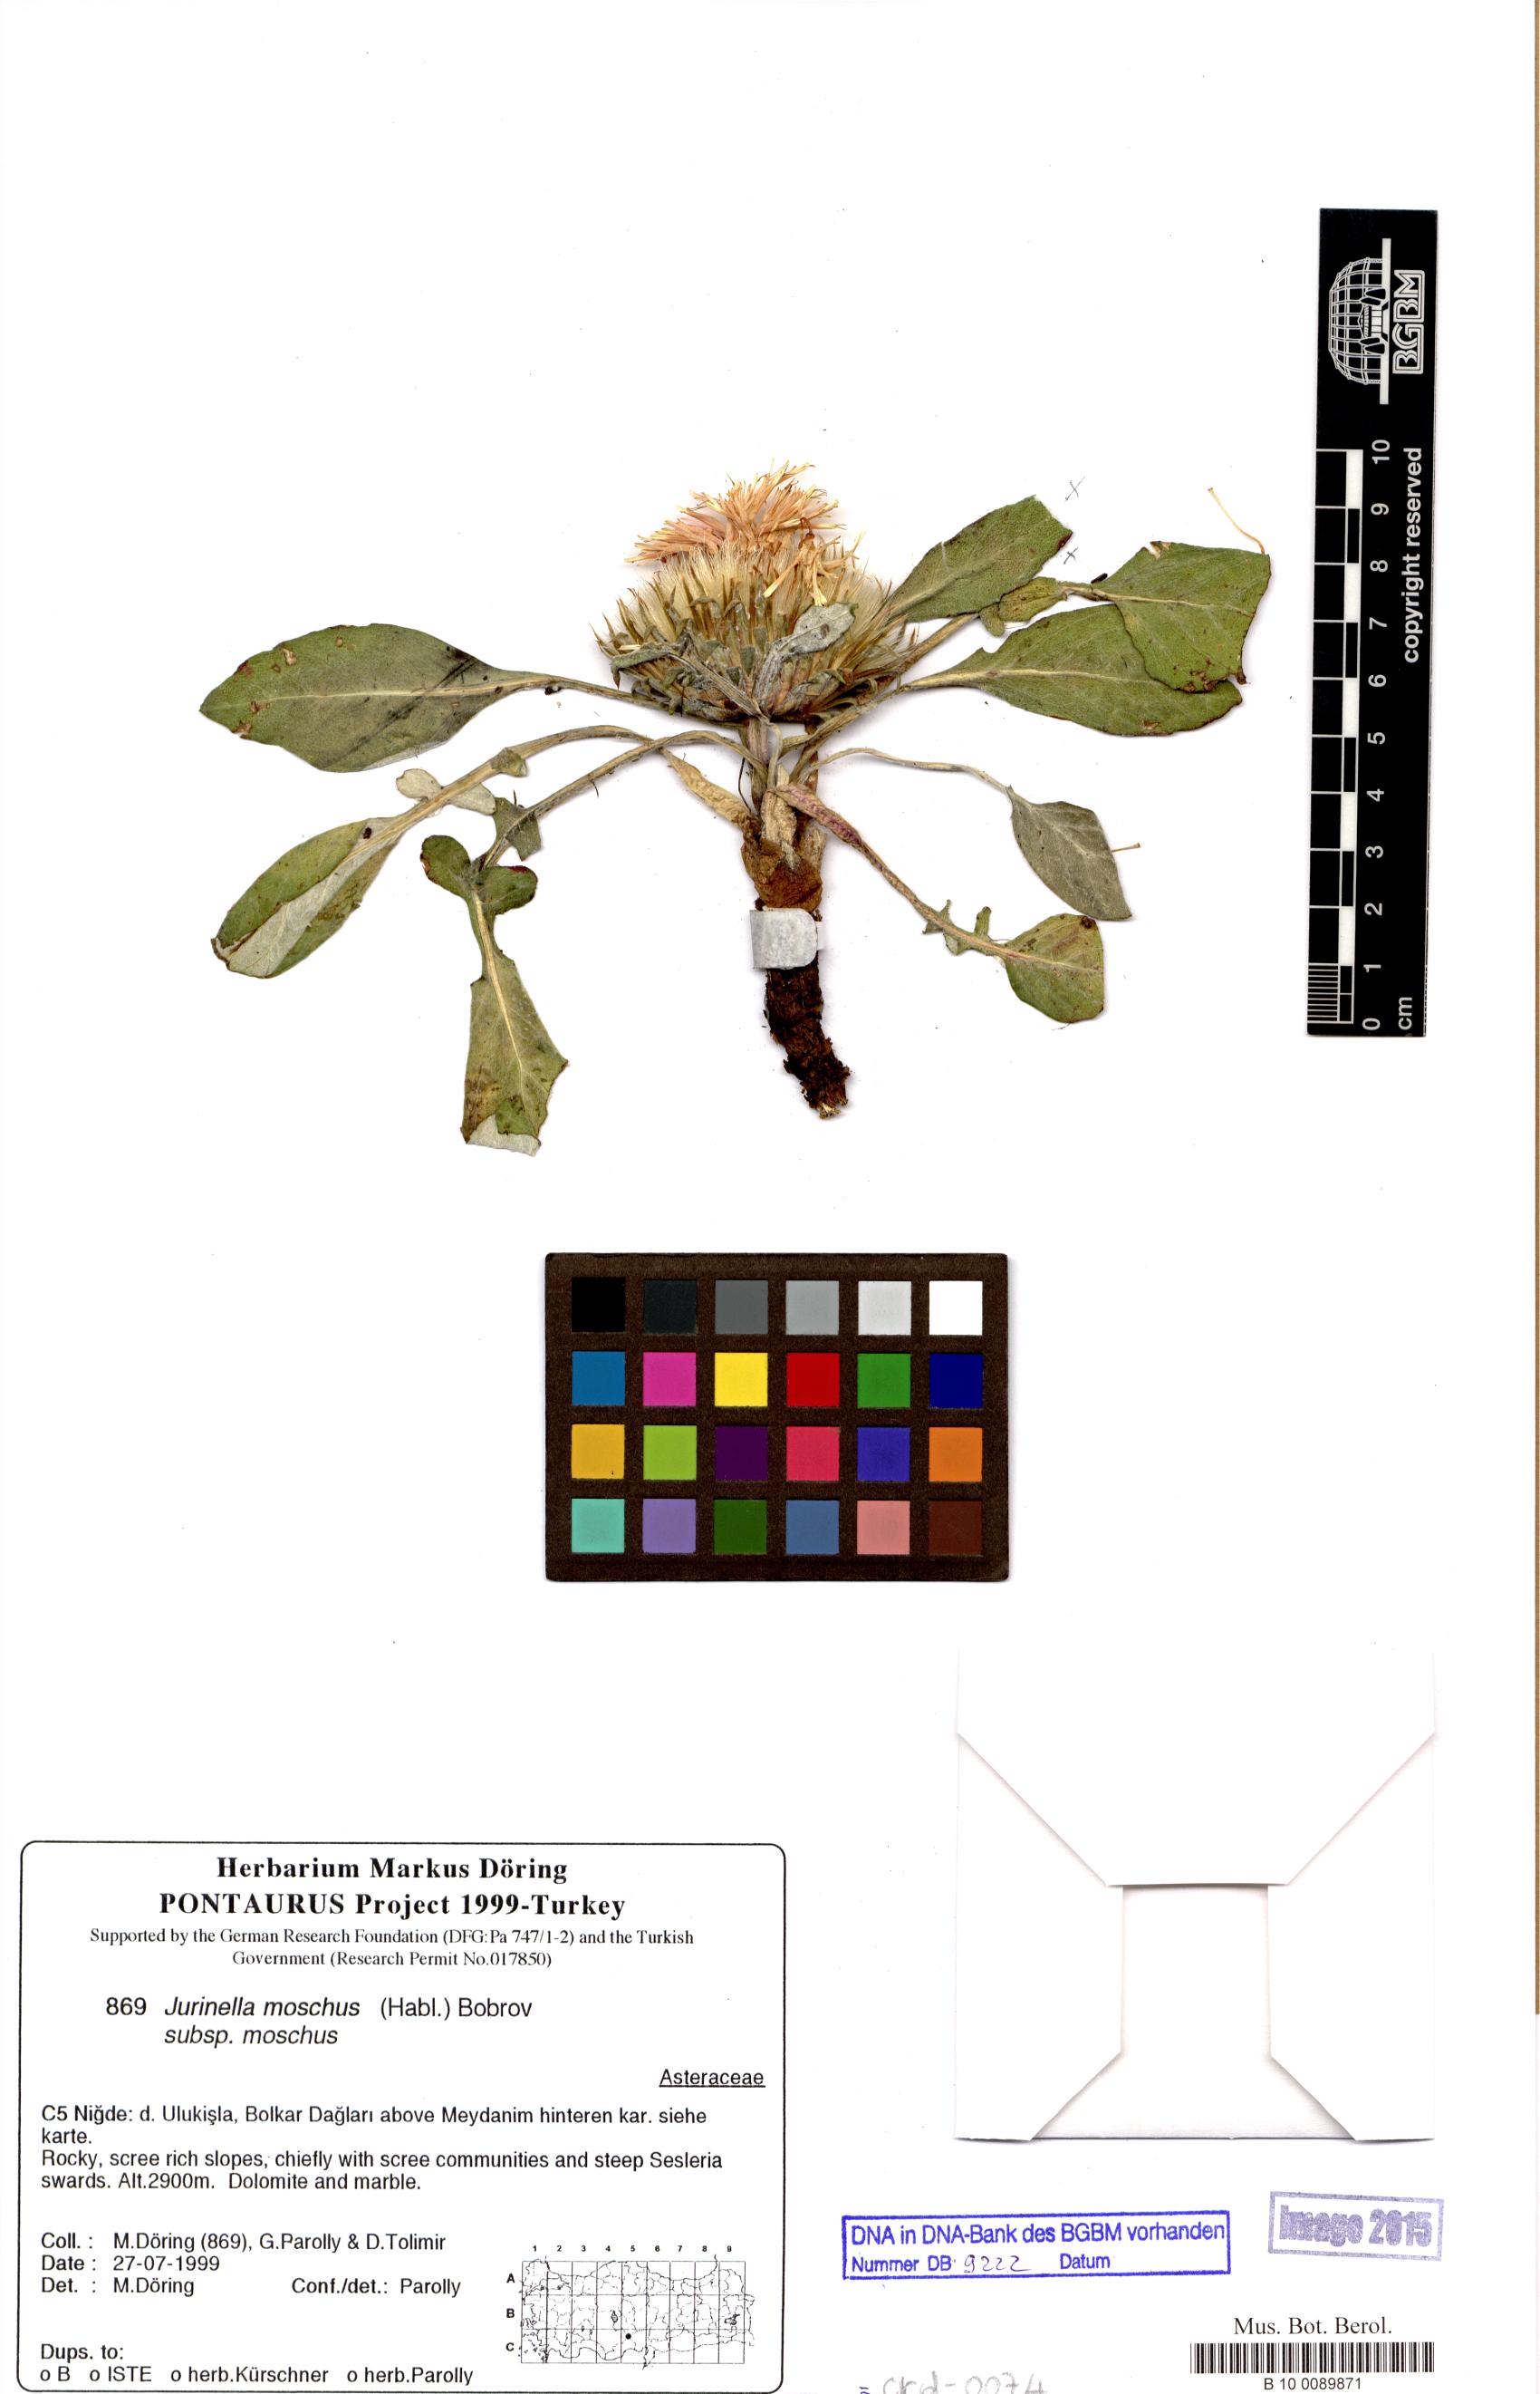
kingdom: Plantae
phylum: Tracheophyta
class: Magnoliopsida
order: Asterales
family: Asteraceae
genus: Jurinea
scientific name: Jurinea moschus
